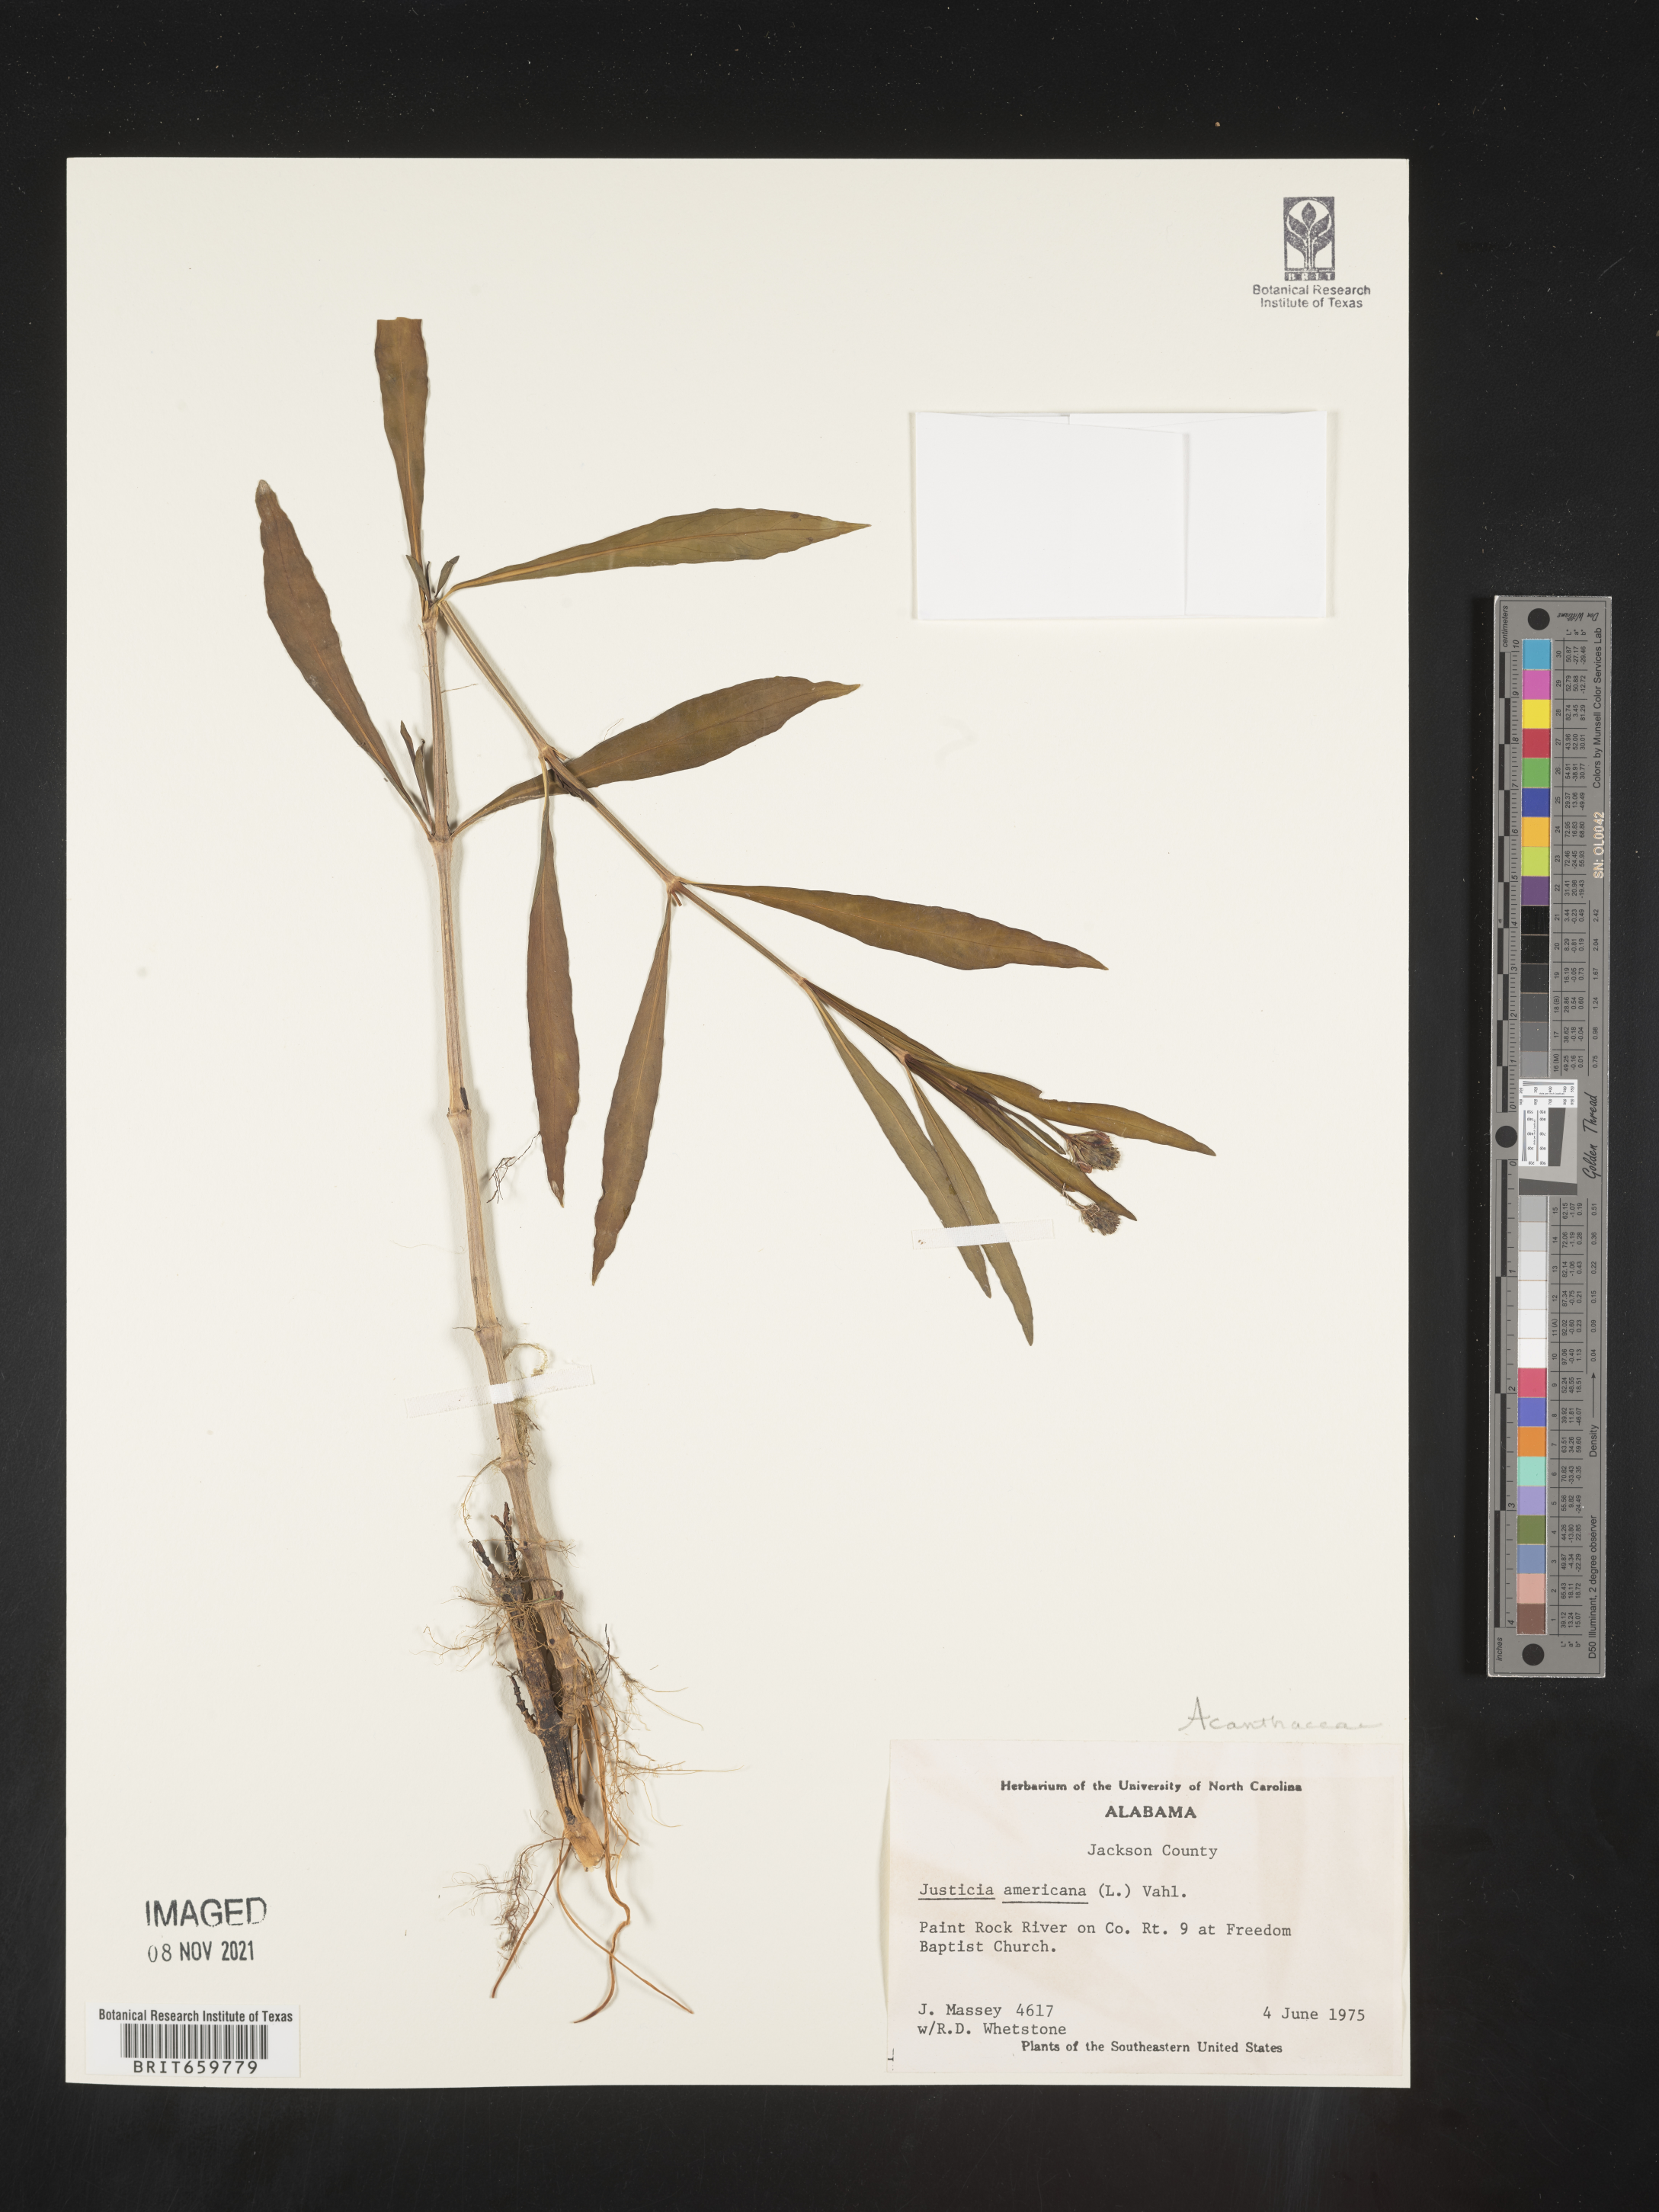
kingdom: Plantae
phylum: Tracheophyta
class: Magnoliopsida
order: Lamiales
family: Acanthaceae
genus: Dianthera
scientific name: Dianthera americana
